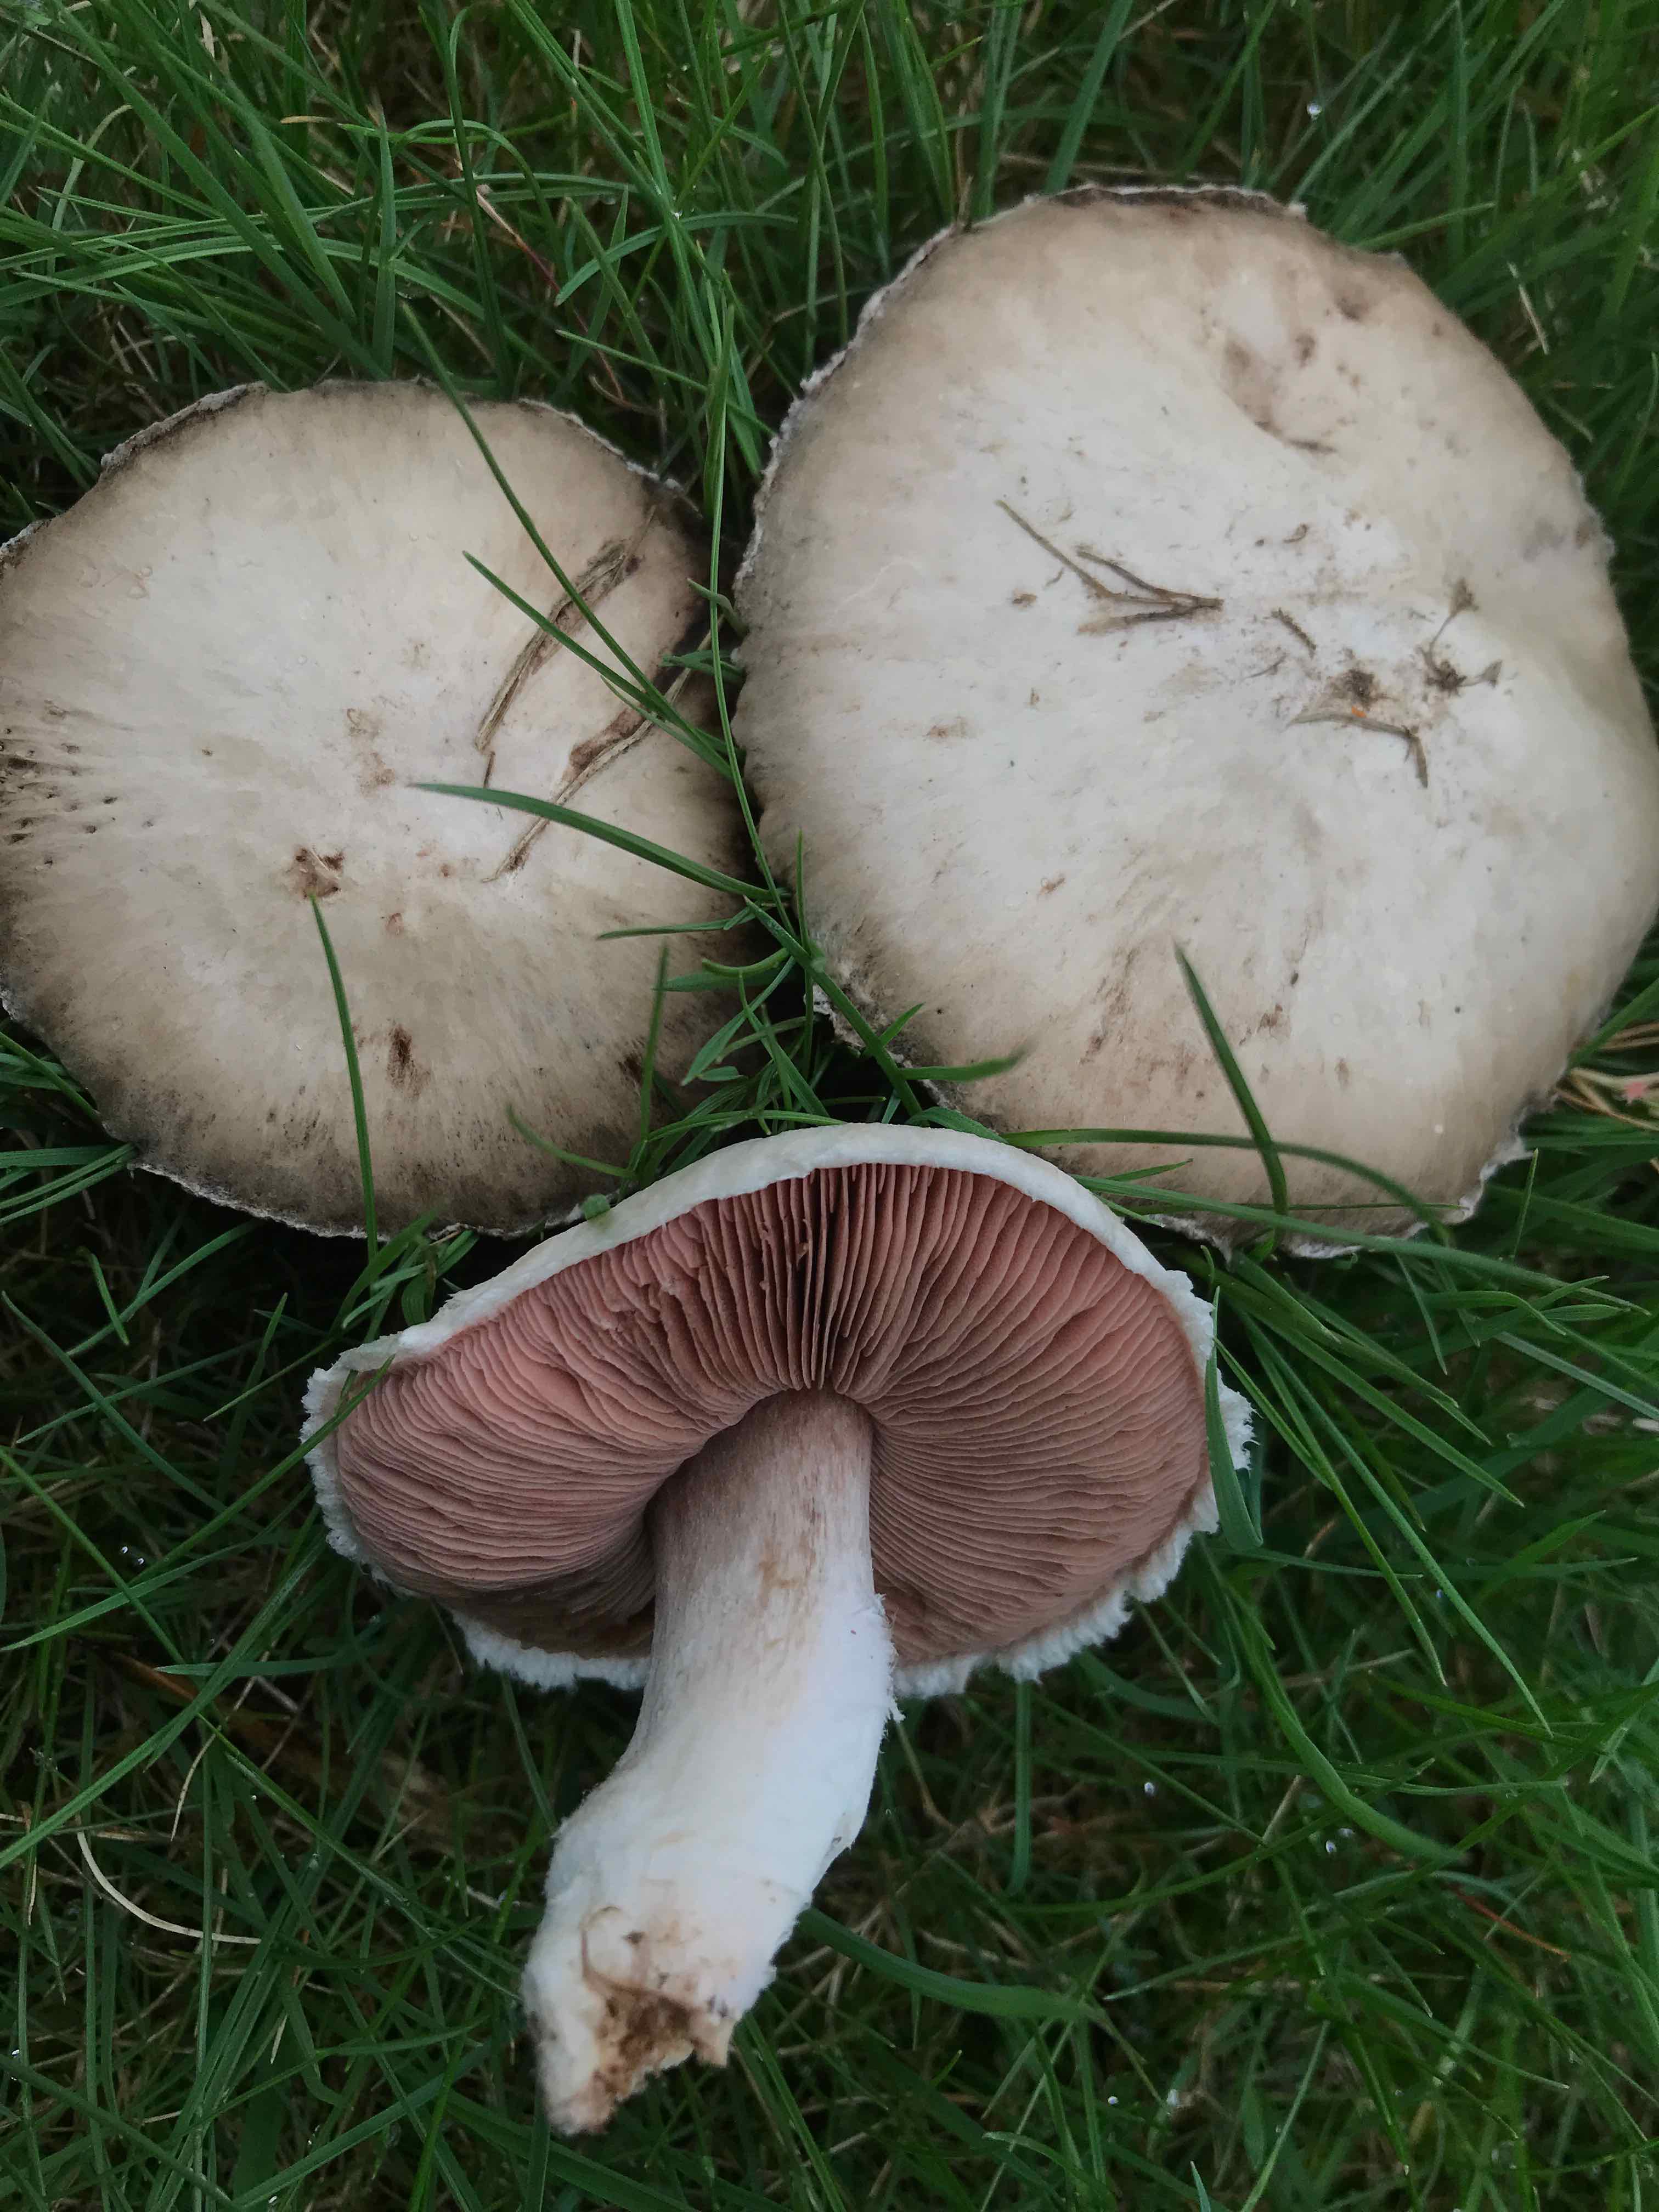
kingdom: Fungi
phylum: Basidiomycota
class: Agaricomycetes
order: Agaricales
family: Agaricaceae
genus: Agaricus
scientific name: Agaricus campestris
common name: mark-champignon
